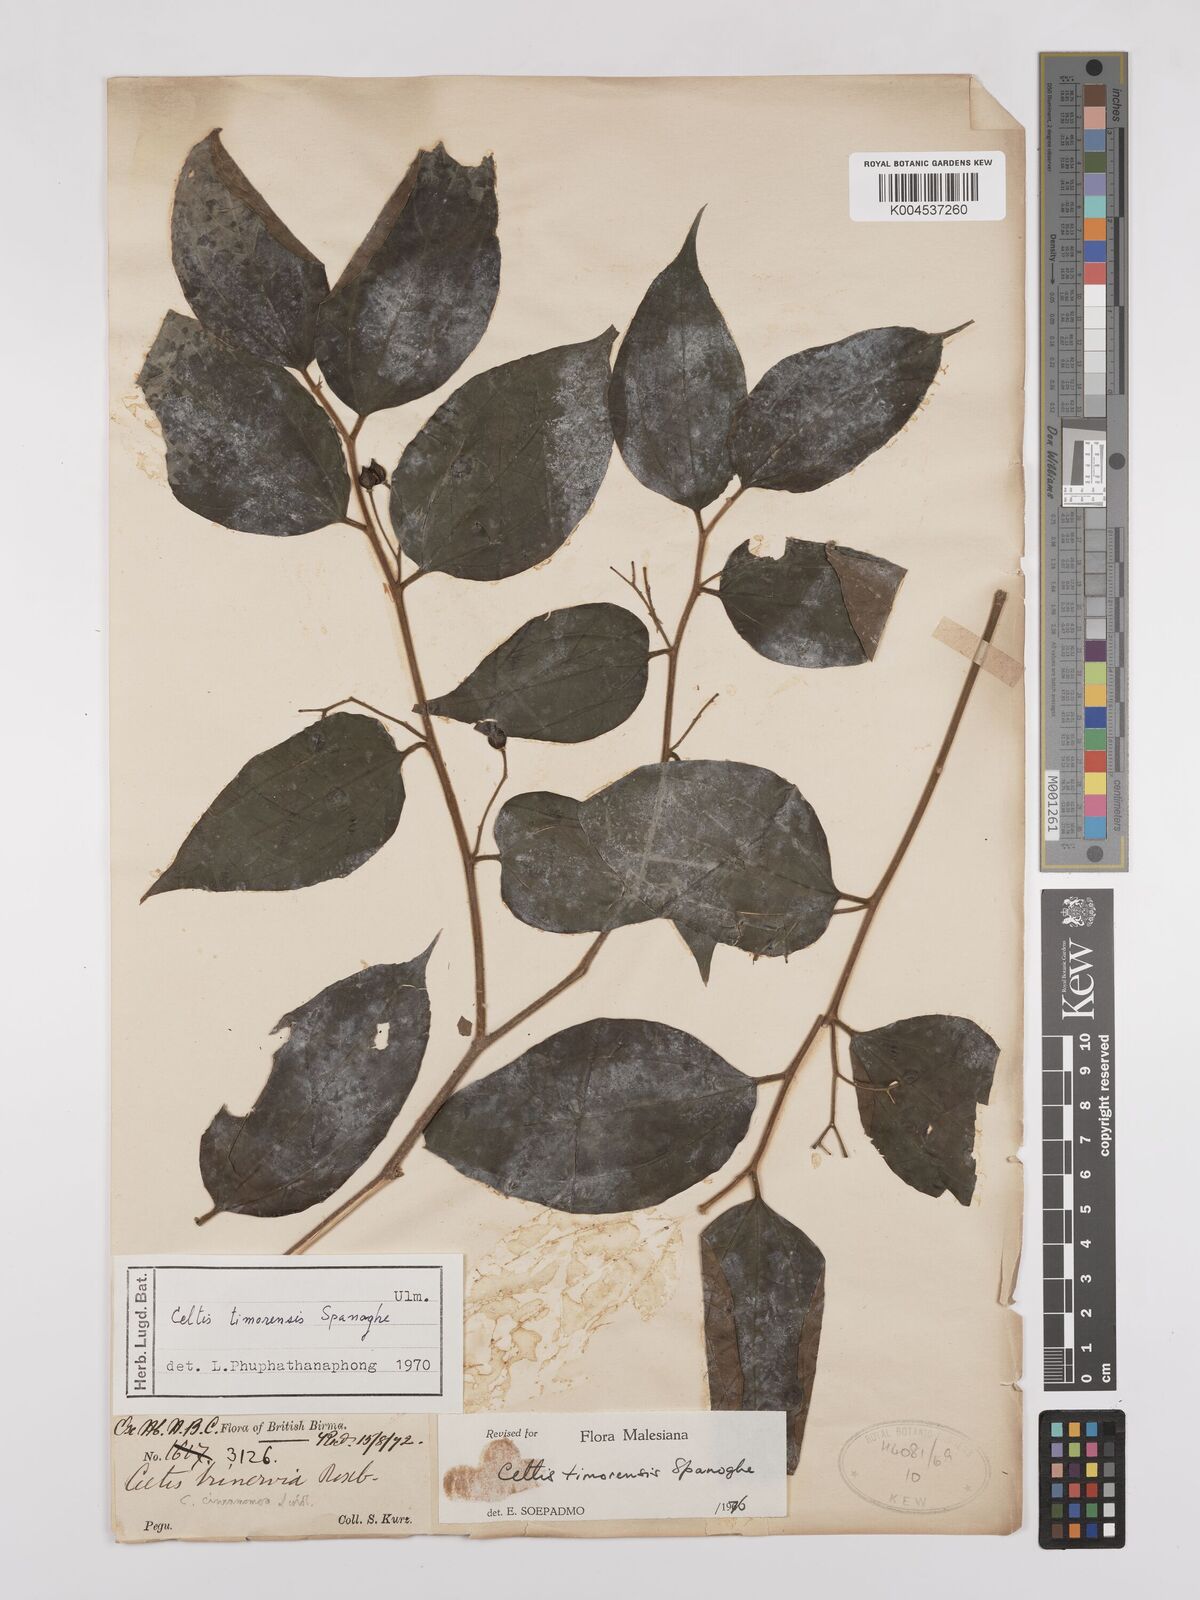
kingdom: Plantae
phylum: Tracheophyta
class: Magnoliopsida
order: Rosales
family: Cannabaceae
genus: Celtis
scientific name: Celtis
